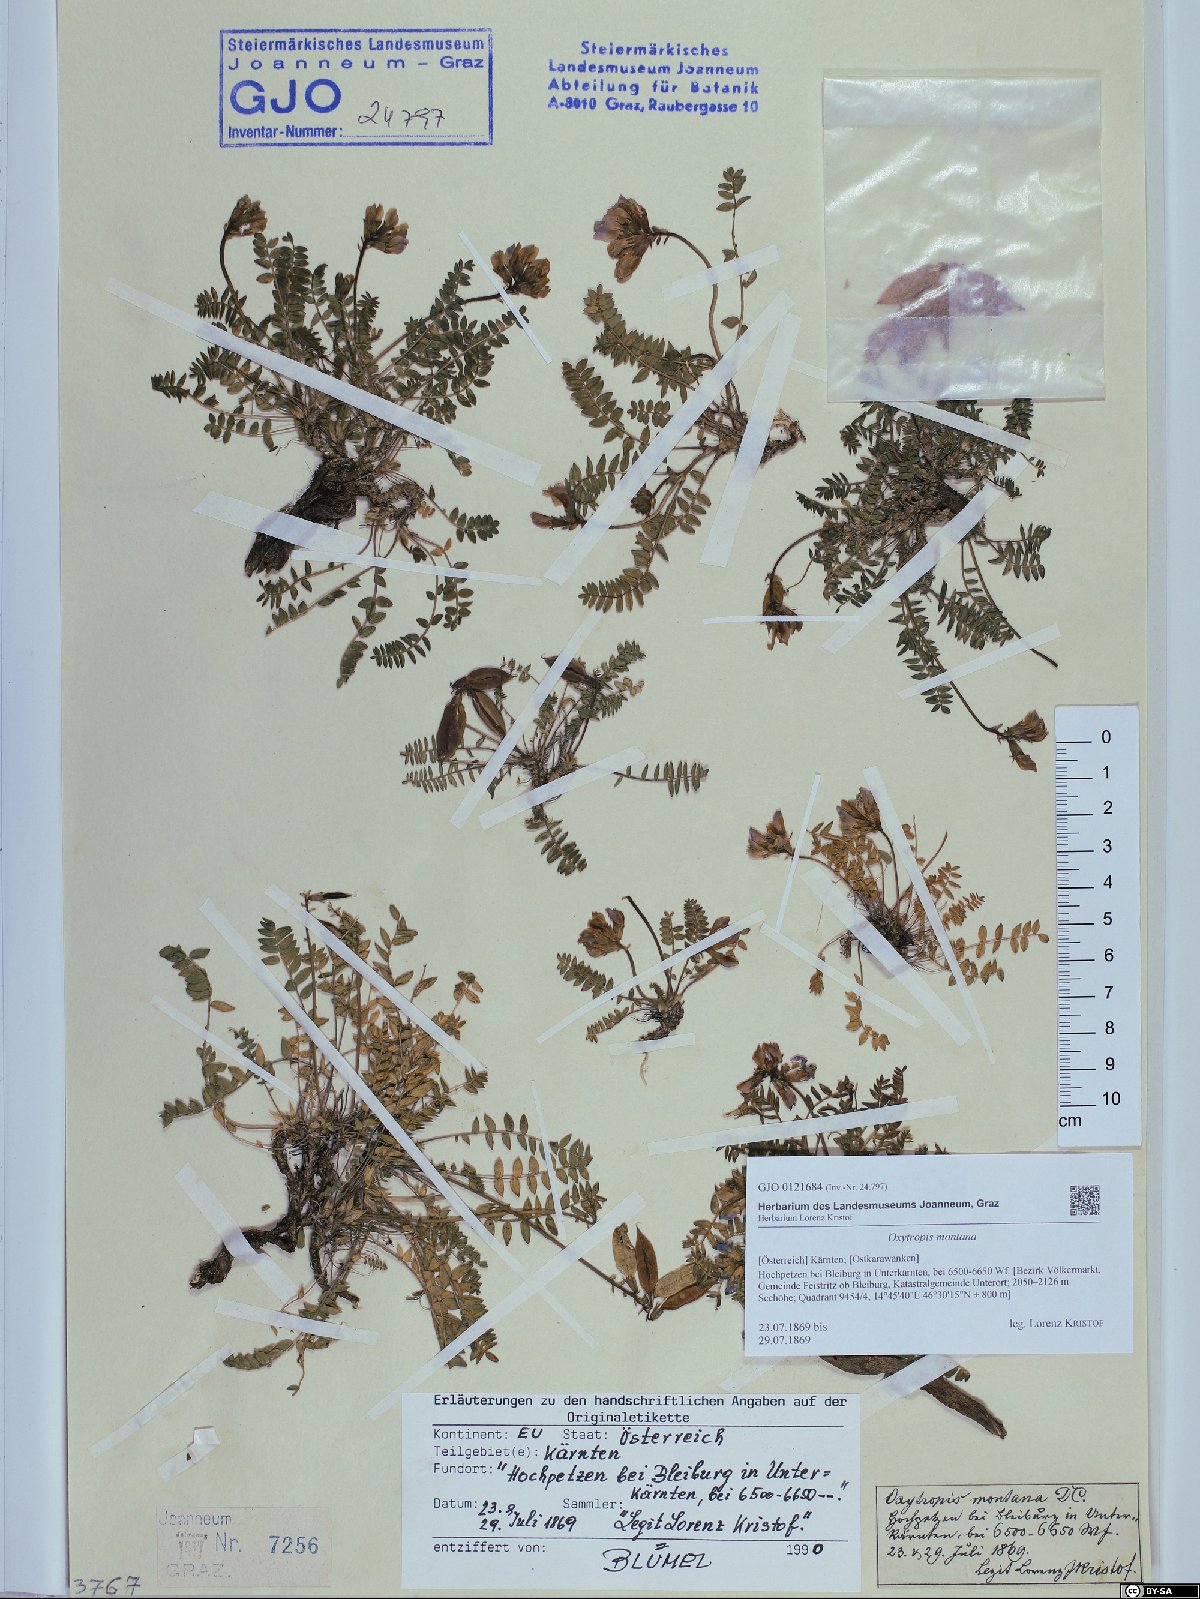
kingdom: Plantae
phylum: Tracheophyta
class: Magnoliopsida
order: Fabales
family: Fabaceae
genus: Oxytropis
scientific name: Oxytropis montana
